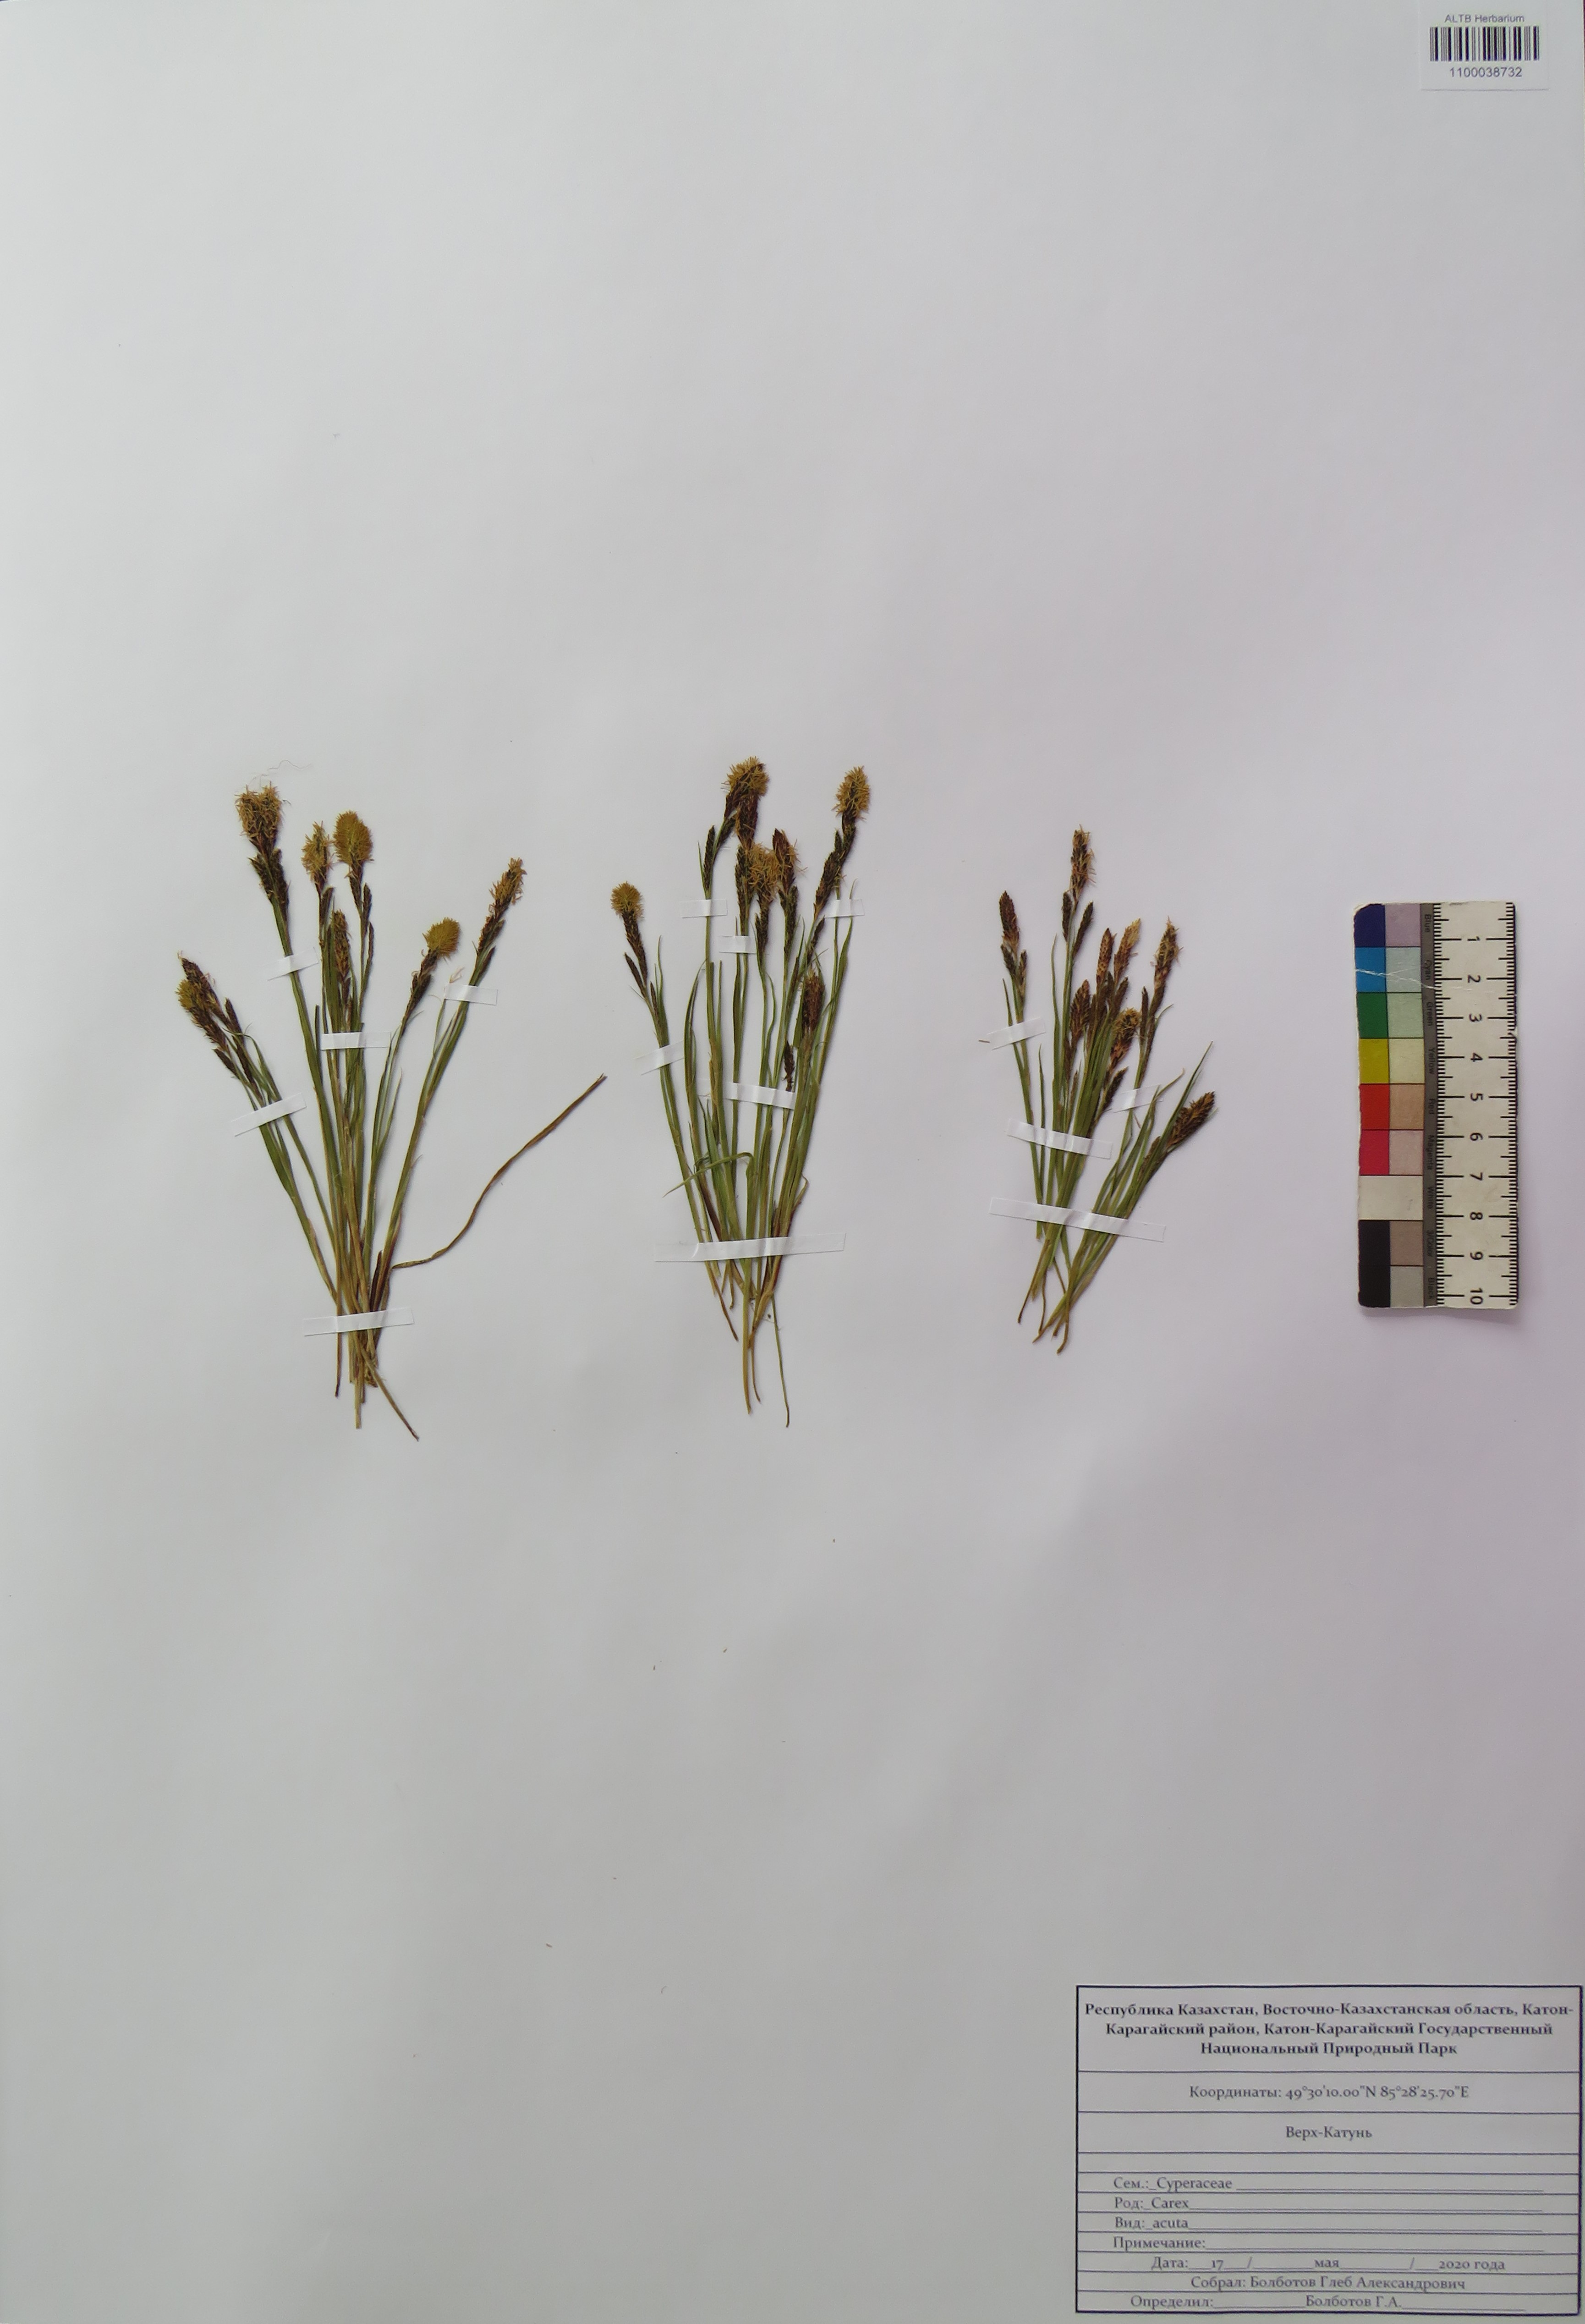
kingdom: Plantae
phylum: Tracheophyta
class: Liliopsida
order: Poales
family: Cyperaceae
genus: Carex
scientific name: Carex acuta
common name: Slender tufted-sedge
